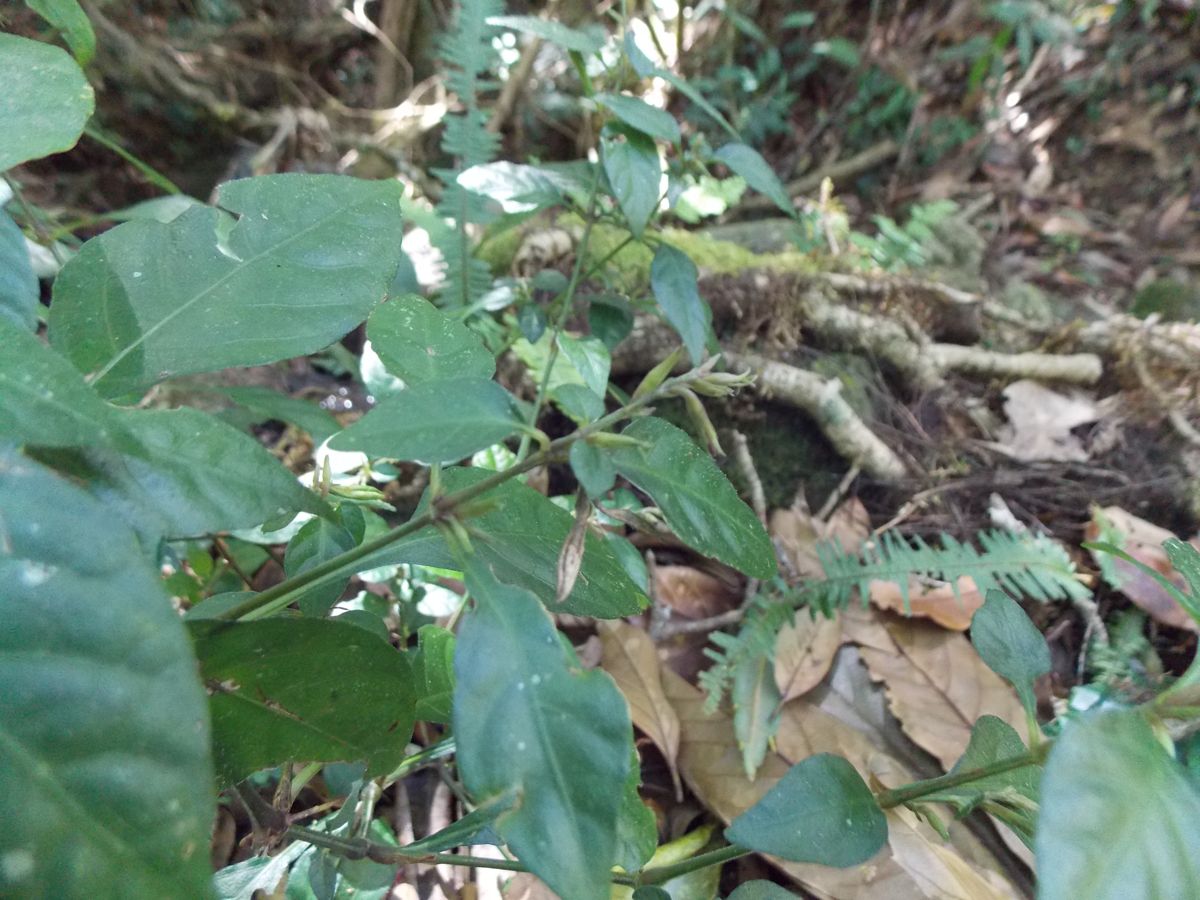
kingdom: Plantae
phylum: Tracheophyta
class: Magnoliopsida
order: Lamiales
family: Acanthaceae
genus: Pseuderanthemum
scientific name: Pseuderanthemum praecox
